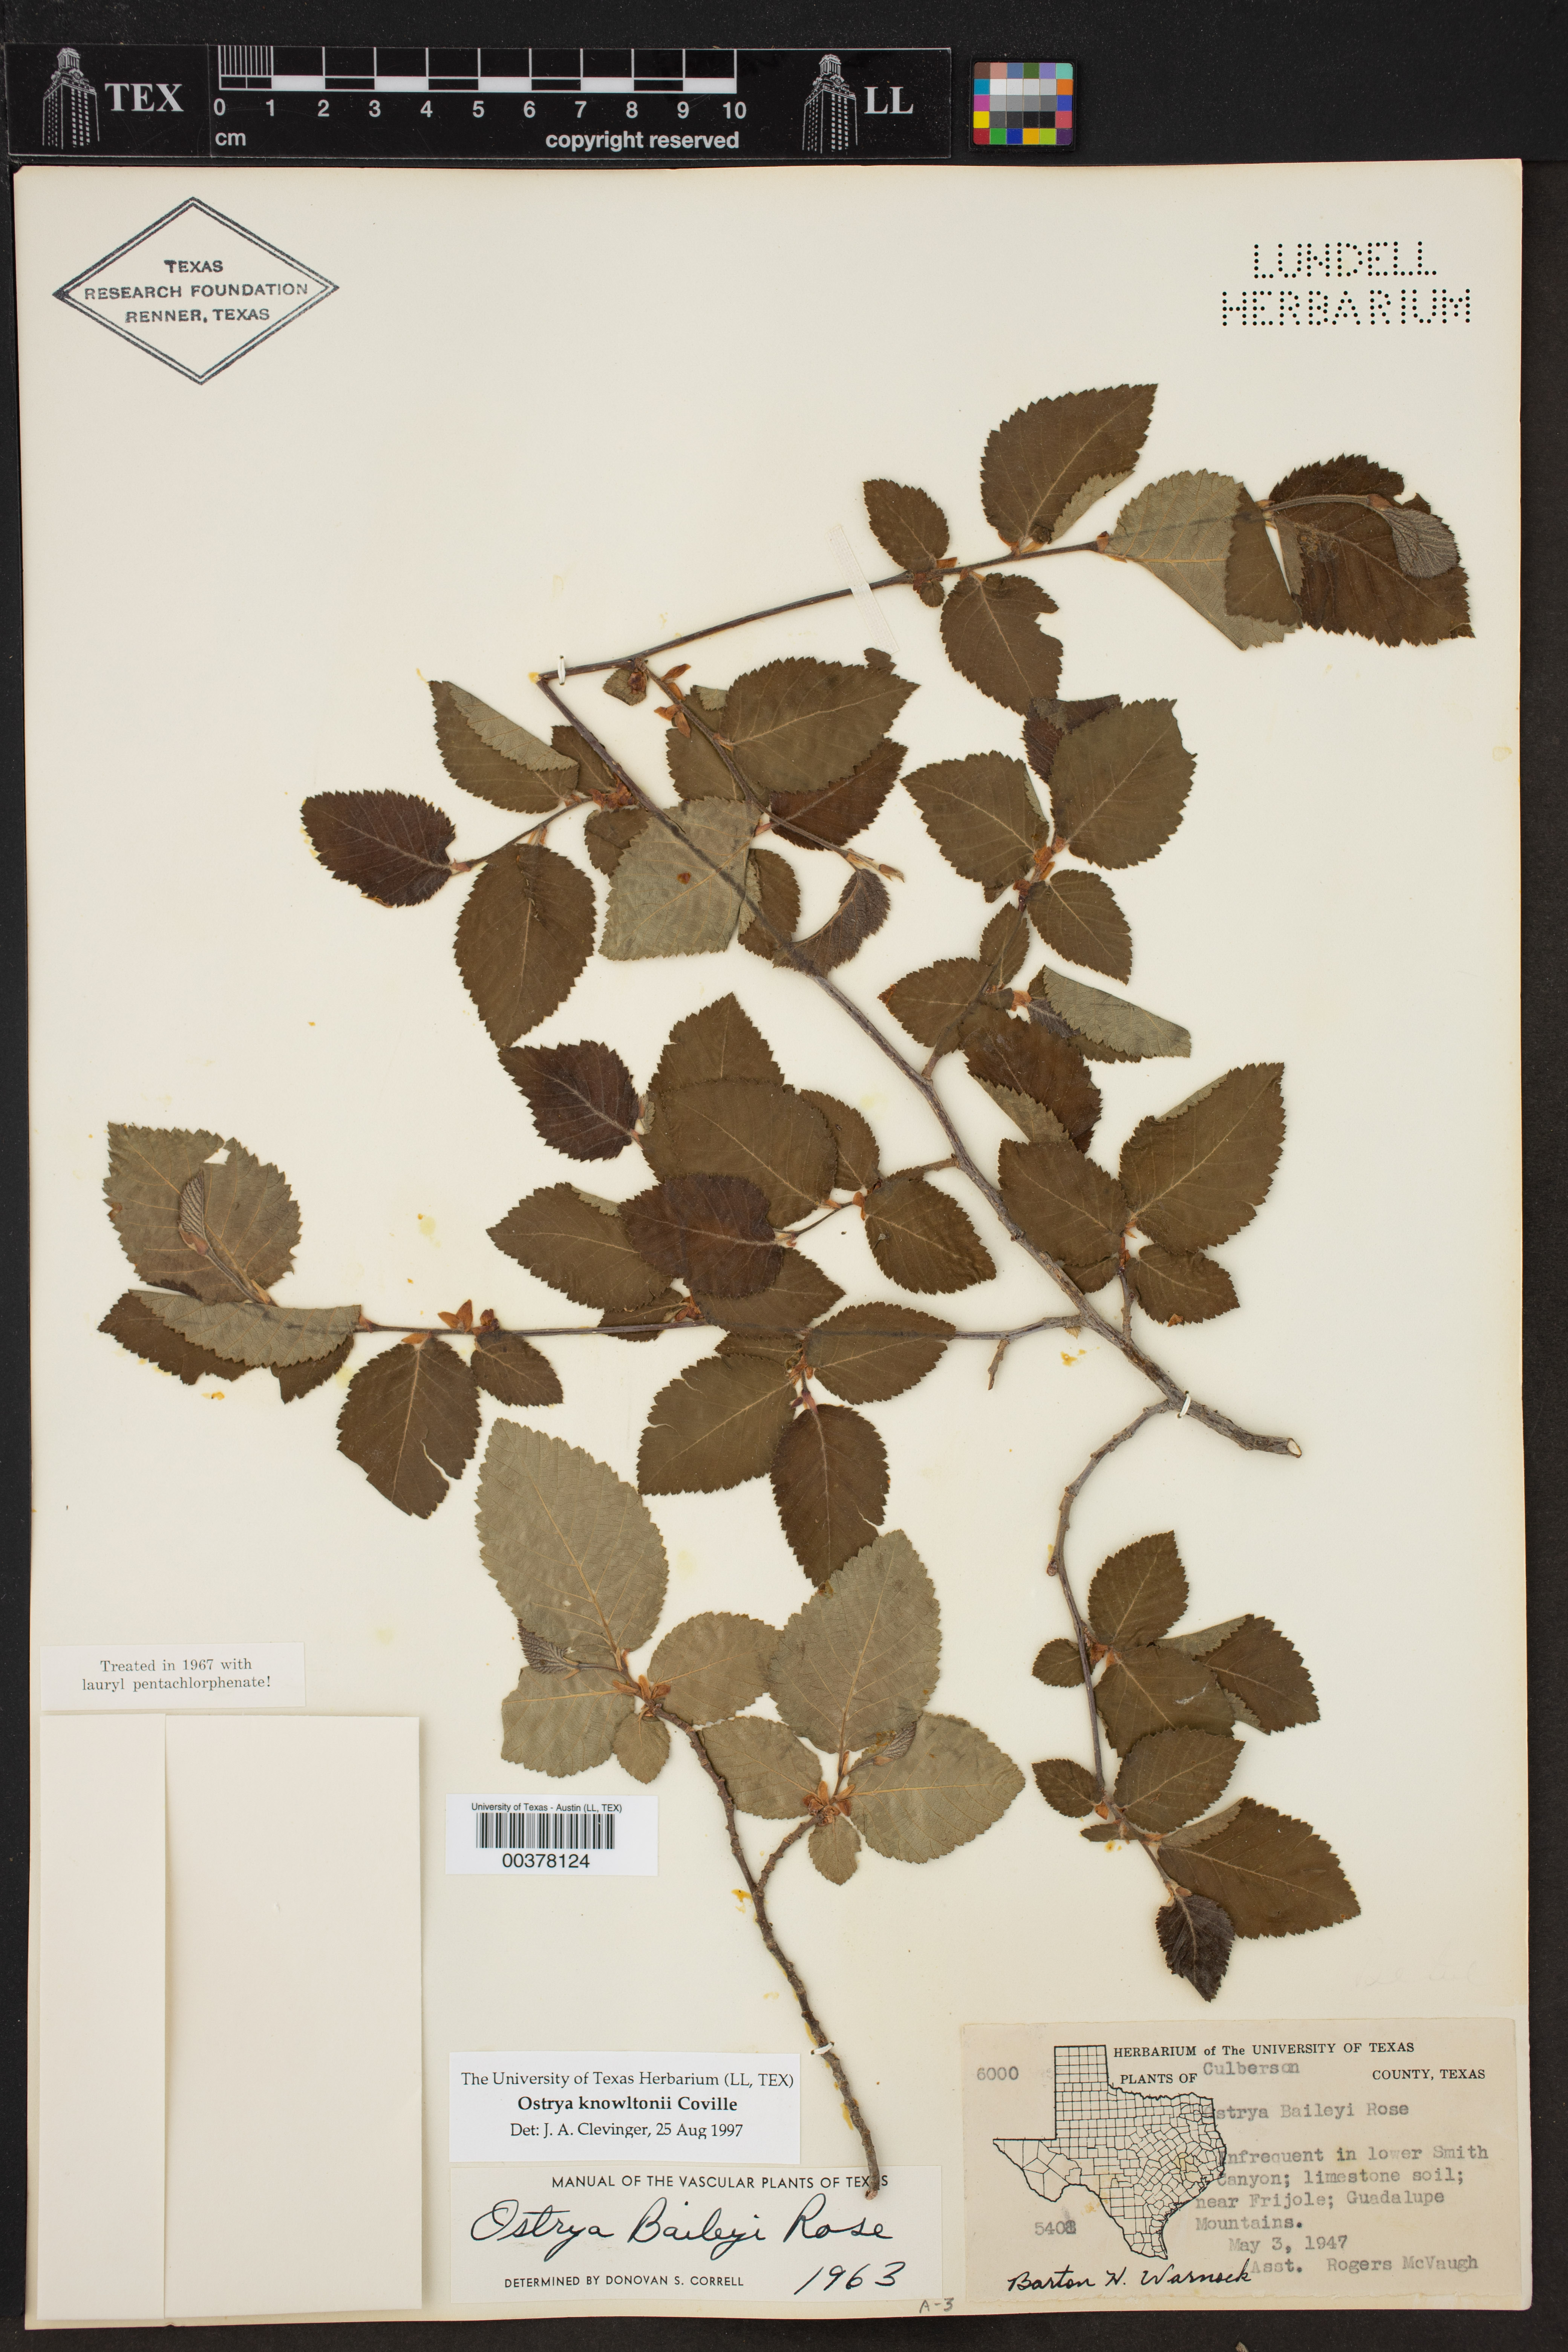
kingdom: Plantae
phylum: Tracheophyta
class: Magnoliopsida
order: Fagales
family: Betulaceae
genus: Ostrya
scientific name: Ostrya knowltonii
